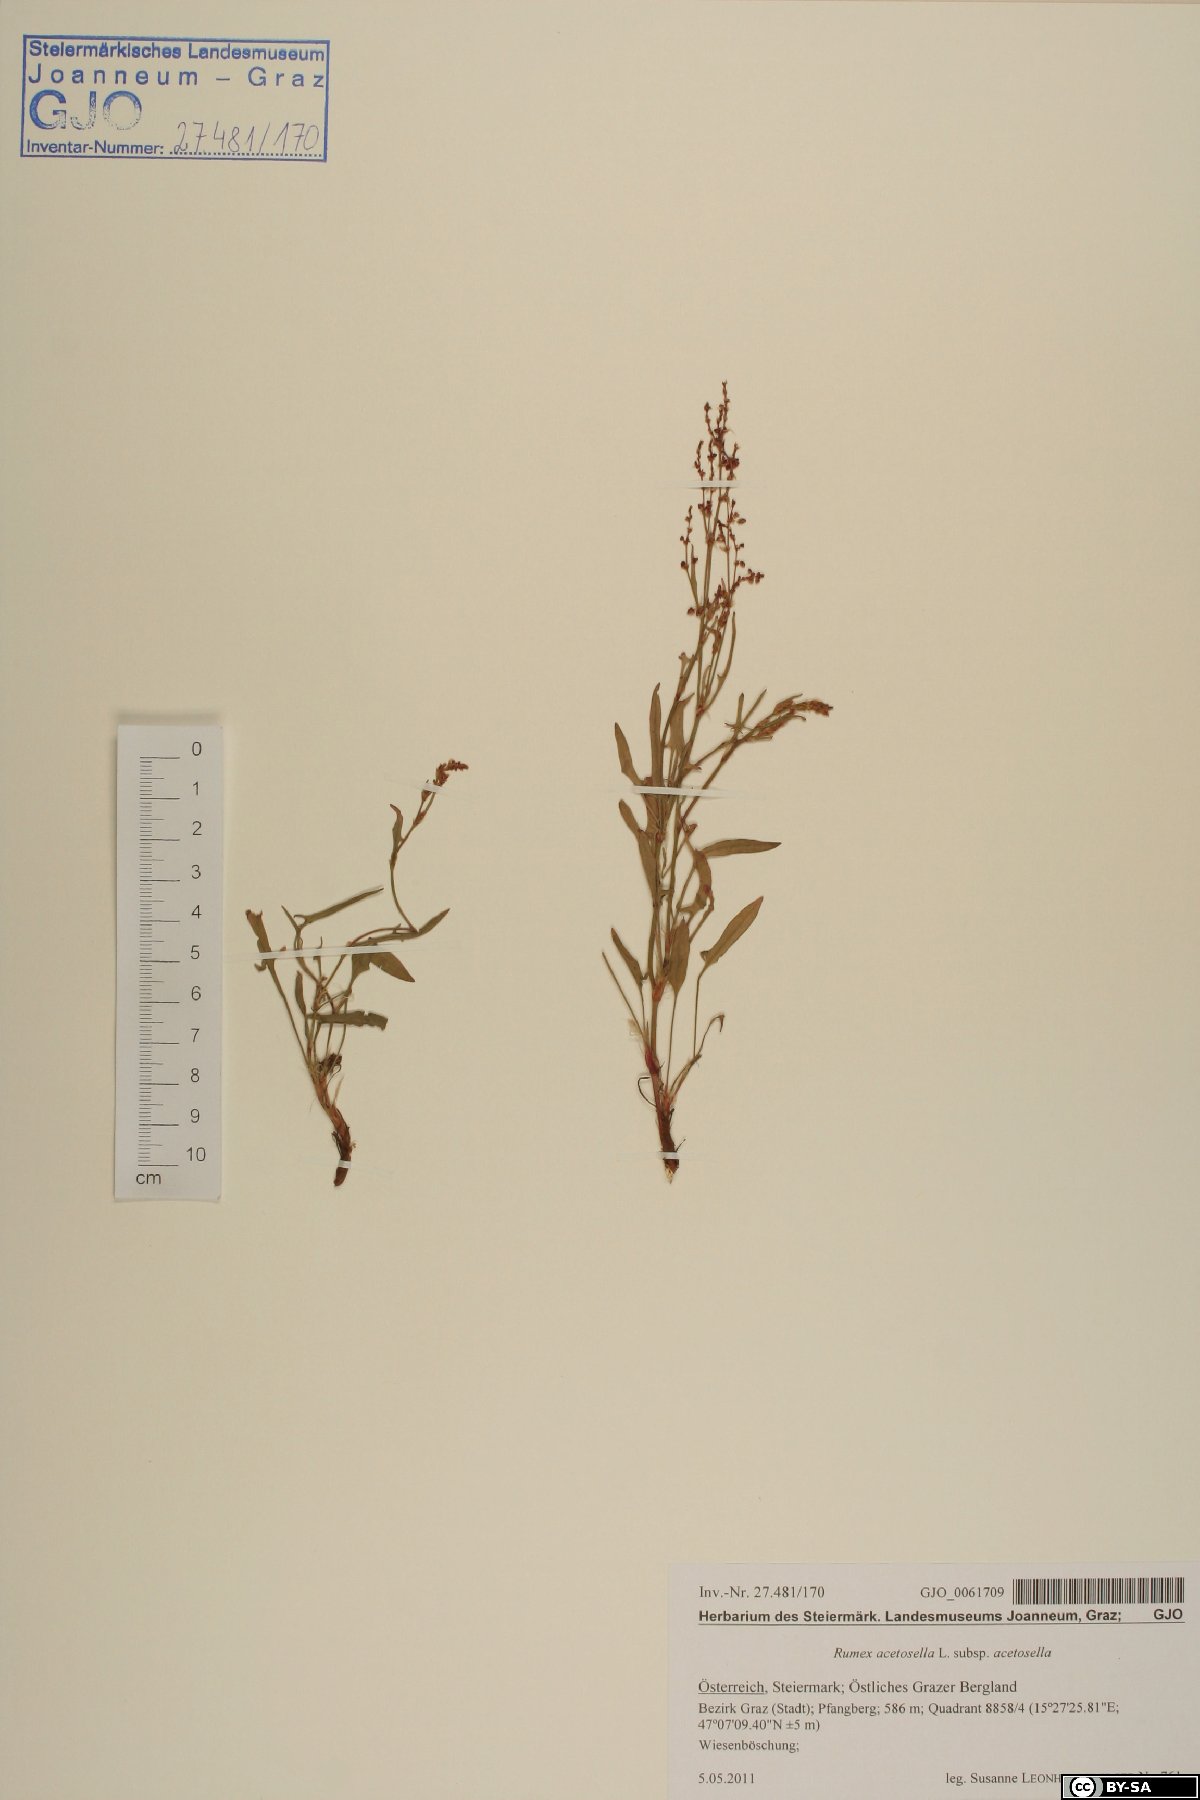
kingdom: Plantae
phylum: Tracheophyta
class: Magnoliopsida
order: Caryophyllales
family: Polygonaceae
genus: Rumex
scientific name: Rumex acetosella
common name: Common sheep sorrel
